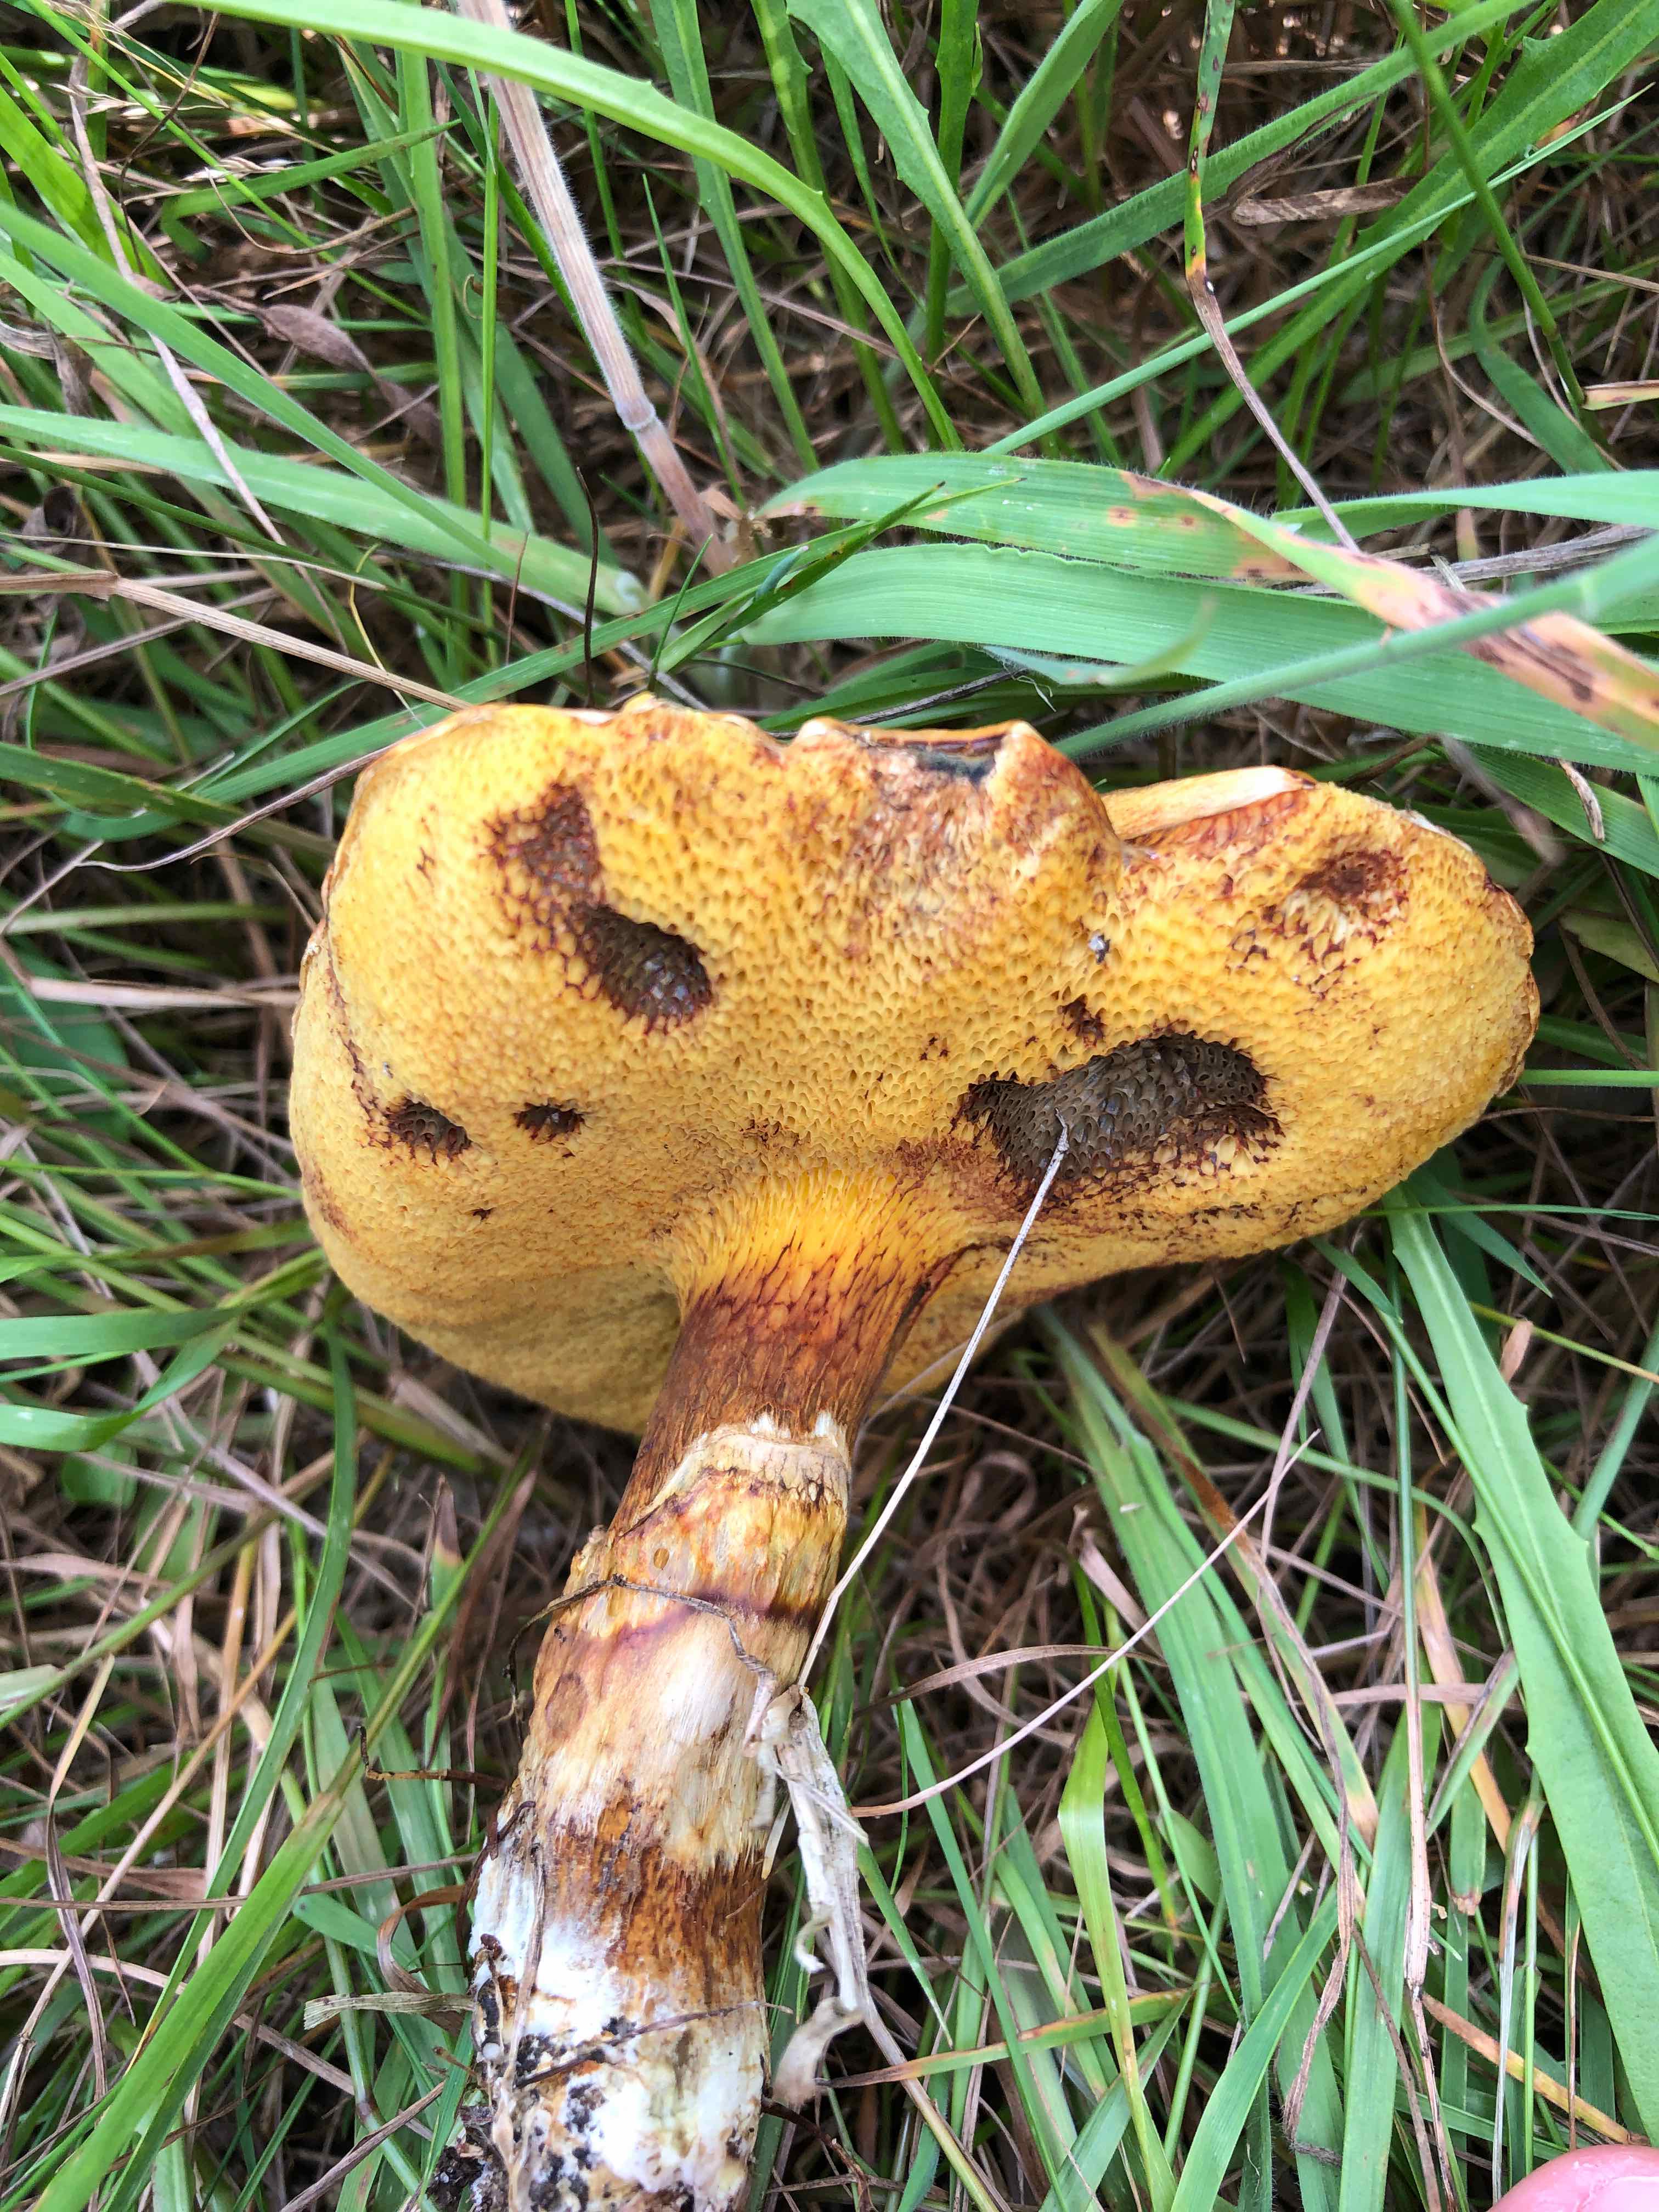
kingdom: Fungi
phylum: Basidiomycota
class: Agaricomycetes
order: Boletales
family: Suillaceae
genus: Suillus
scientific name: Suillus grevillei
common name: lærke-slimrørhat
